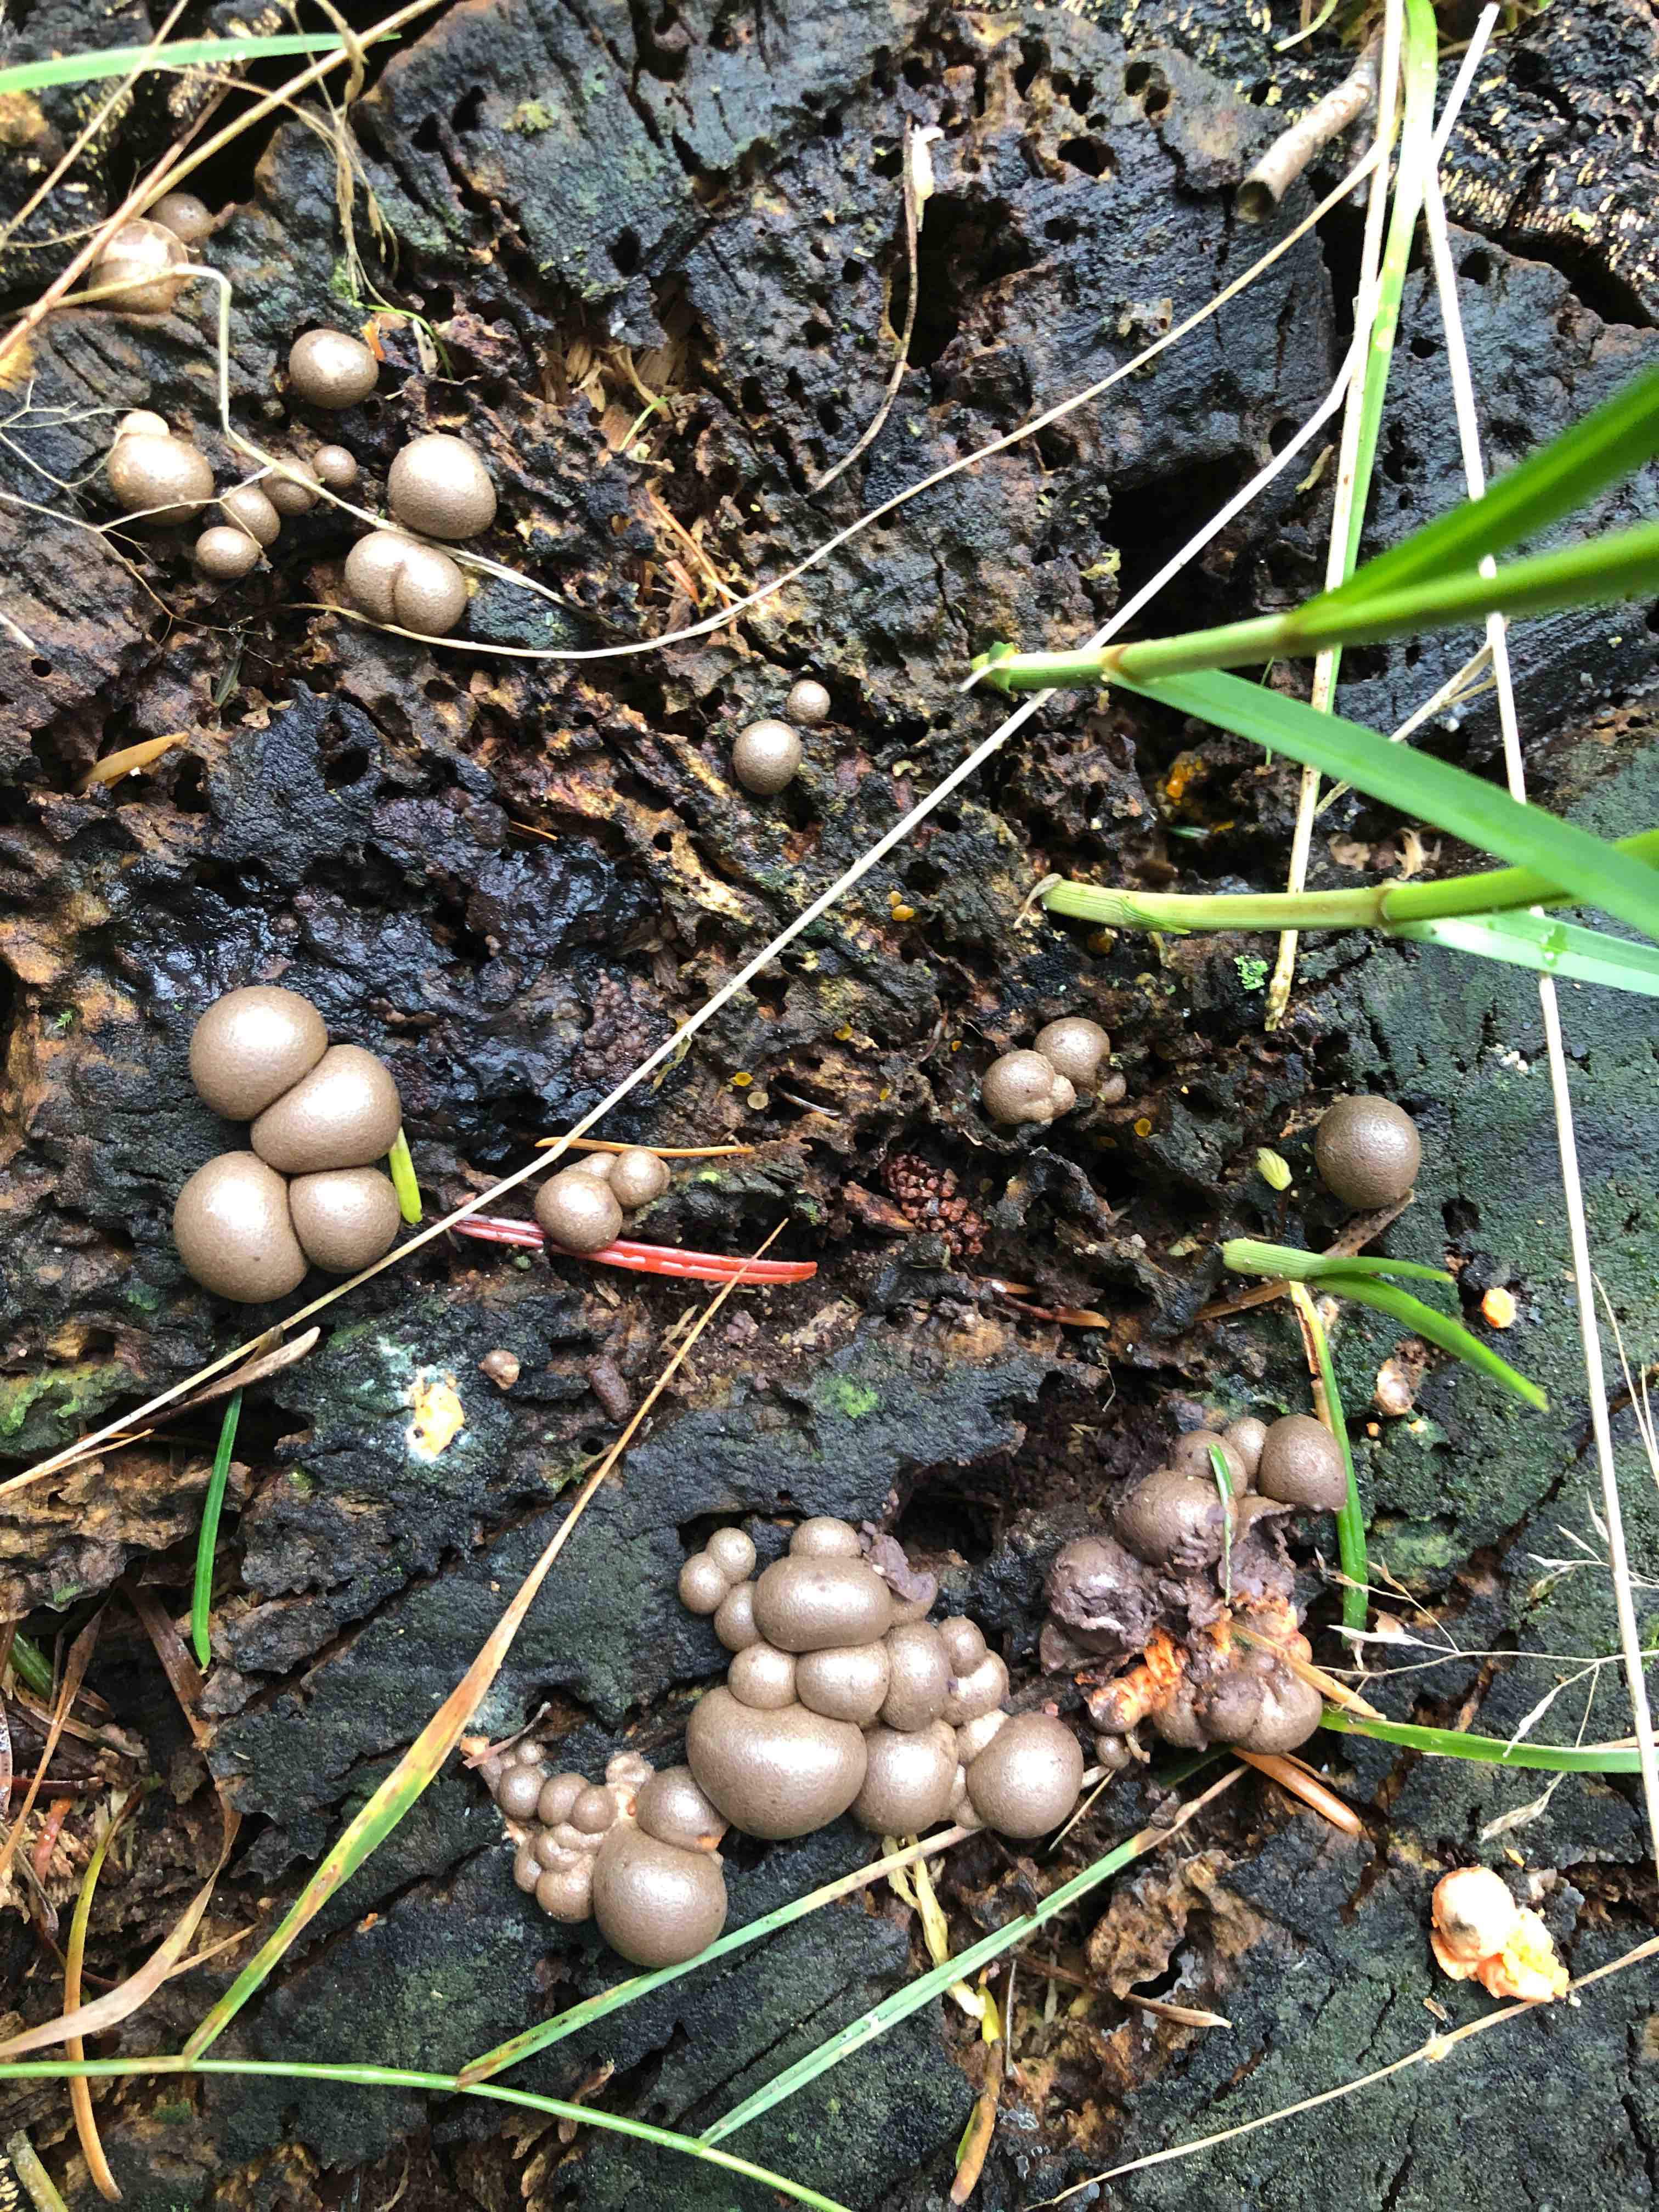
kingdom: Protozoa
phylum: Mycetozoa
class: Myxomycetes
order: Cribrariales
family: Tubiferaceae
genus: Lycogala
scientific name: Lycogala epidendrum
